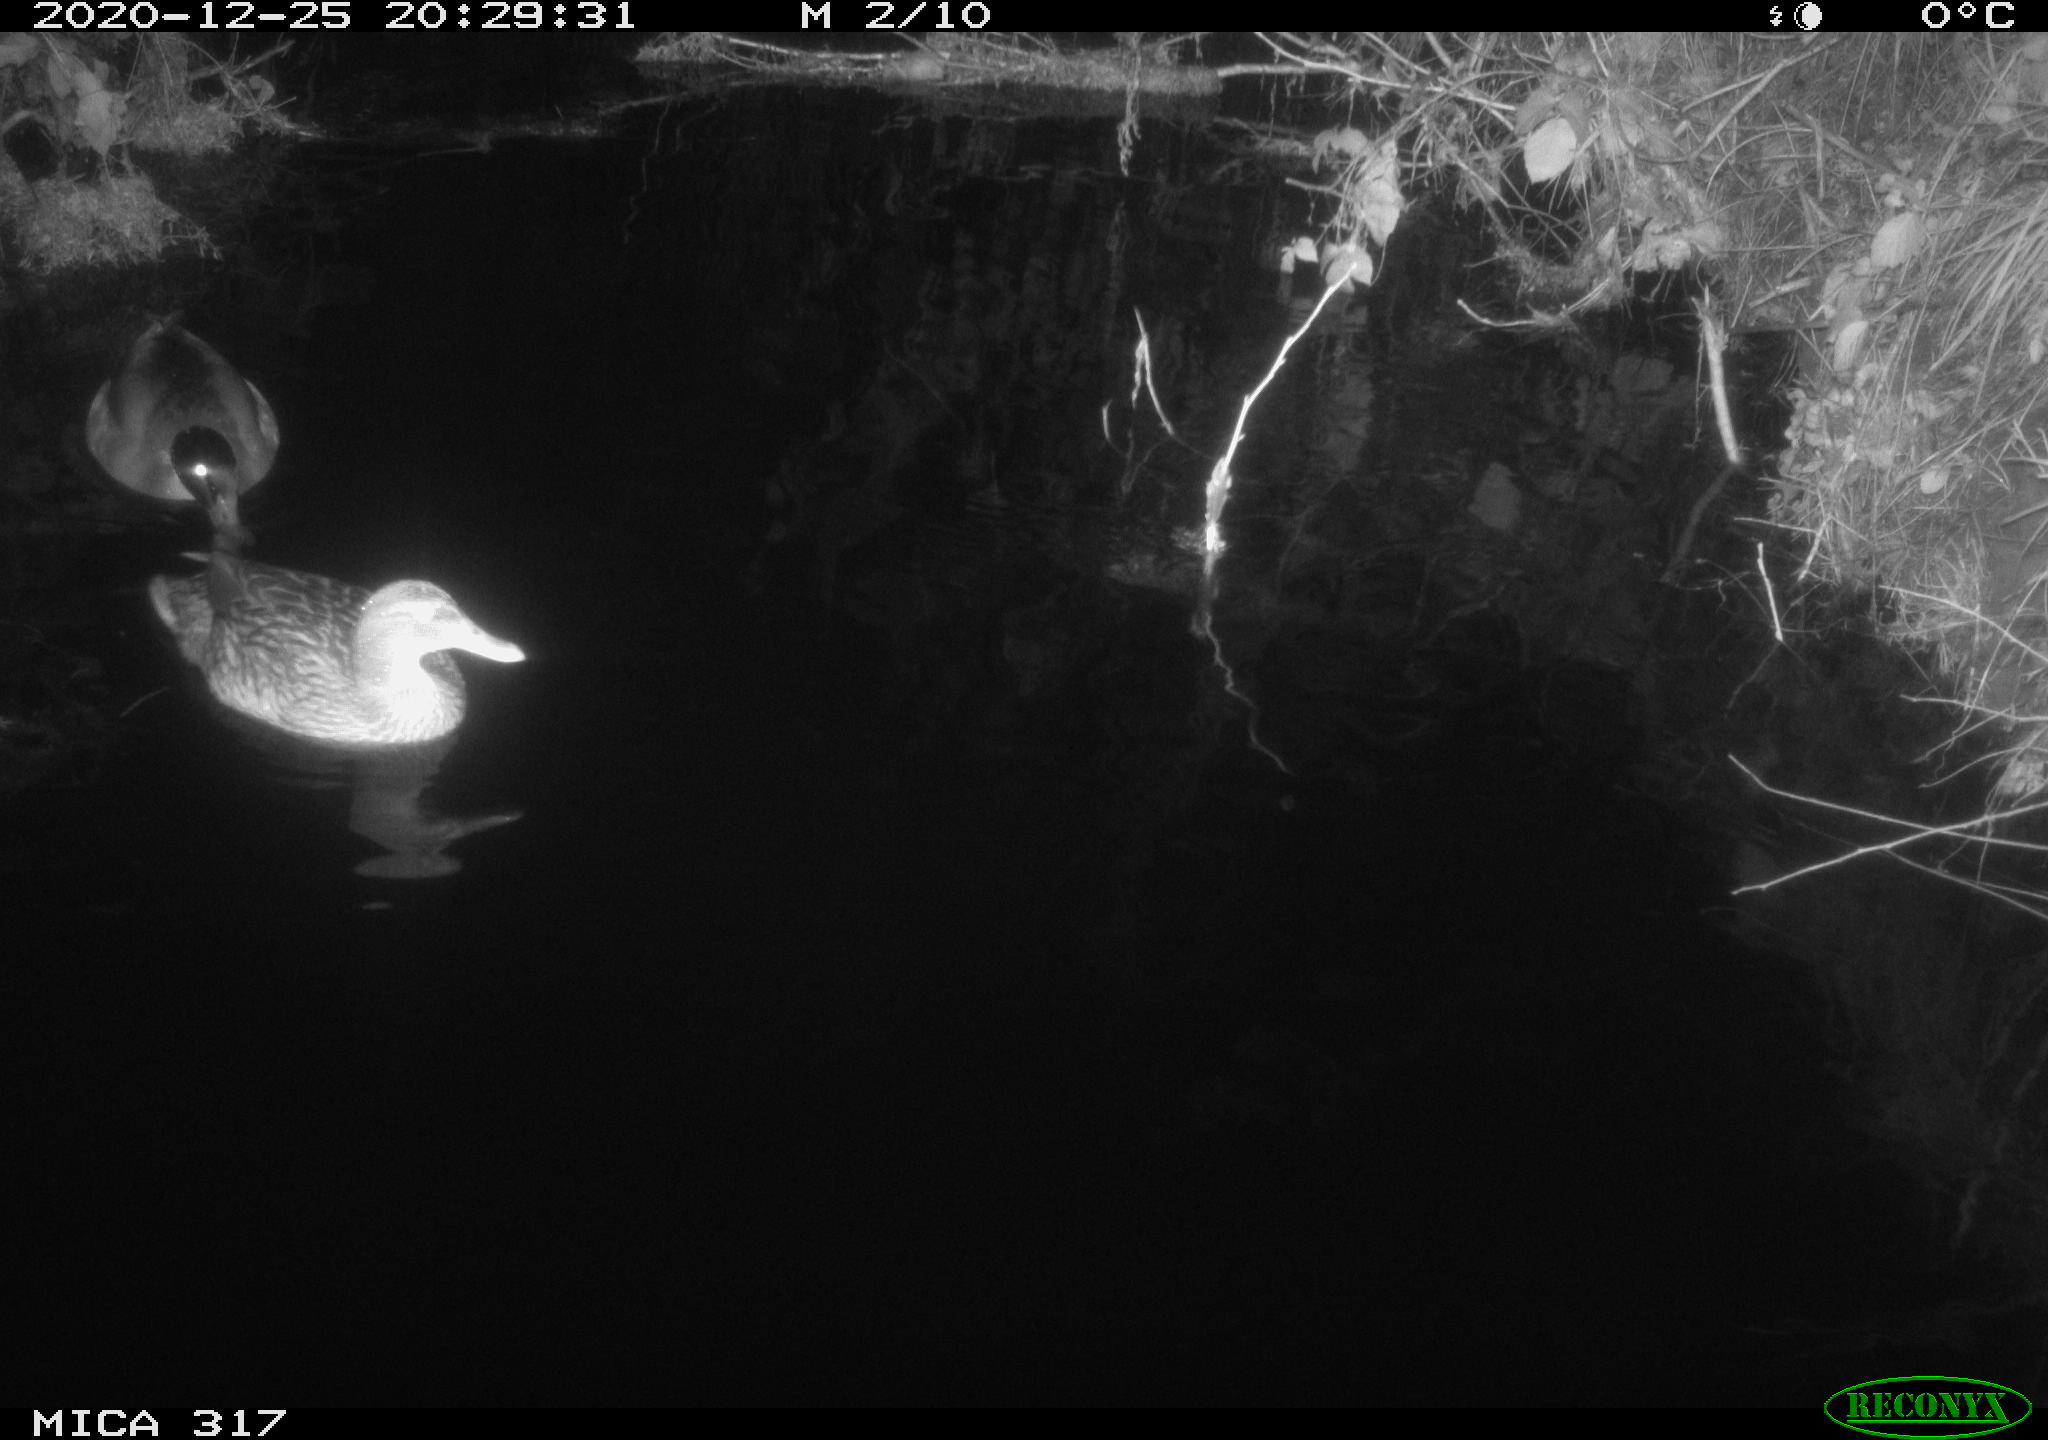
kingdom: Animalia
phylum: Chordata
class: Aves
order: Anseriformes
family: Anatidae
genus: Anas
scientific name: Anas platyrhynchos
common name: Mallard
